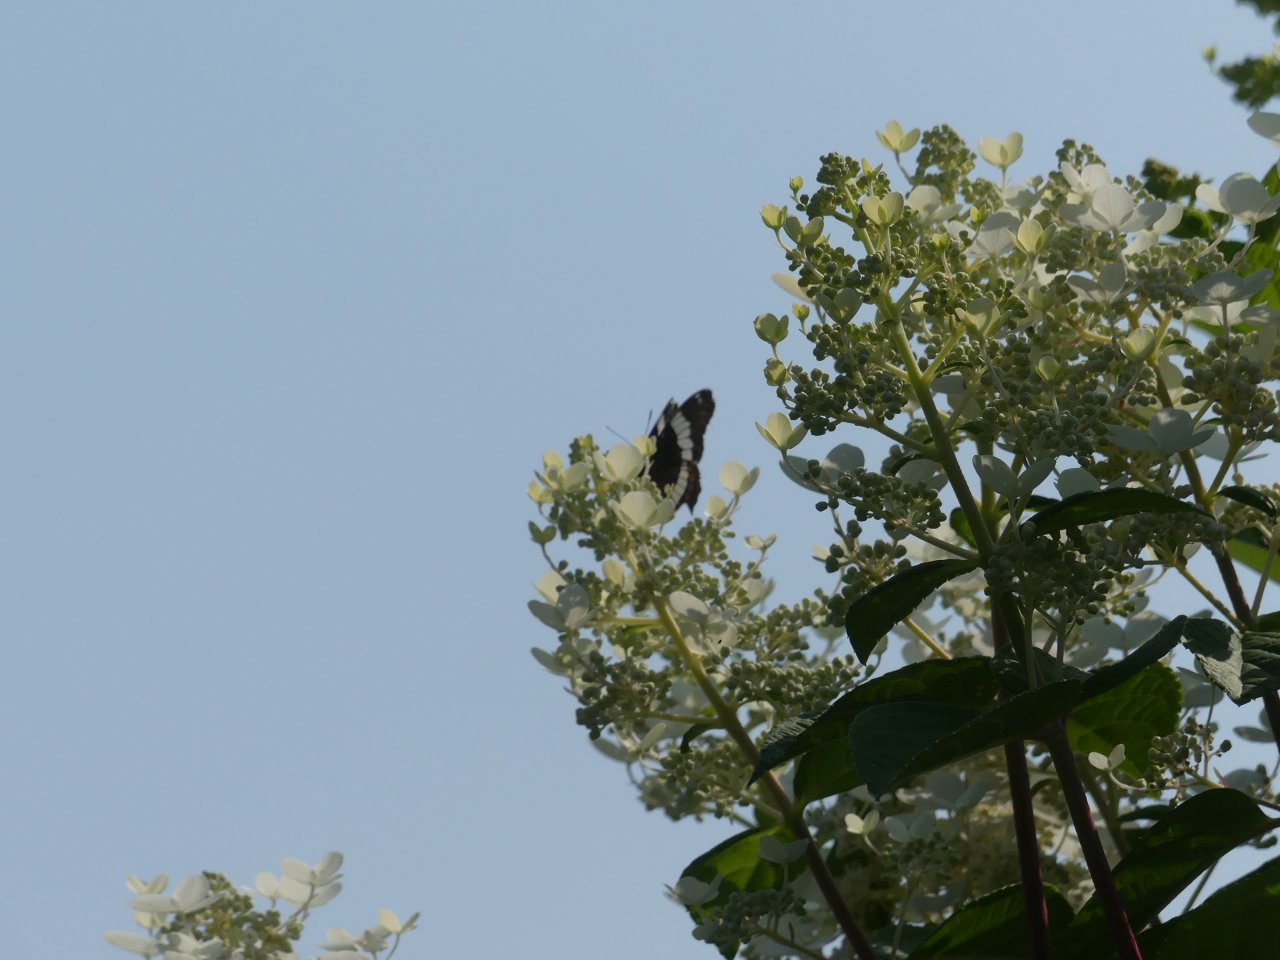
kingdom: Animalia
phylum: Arthropoda
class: Insecta
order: Lepidoptera
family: Nymphalidae
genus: Limenitis
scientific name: Limenitis arthemis
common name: Red-spotted Admiral
